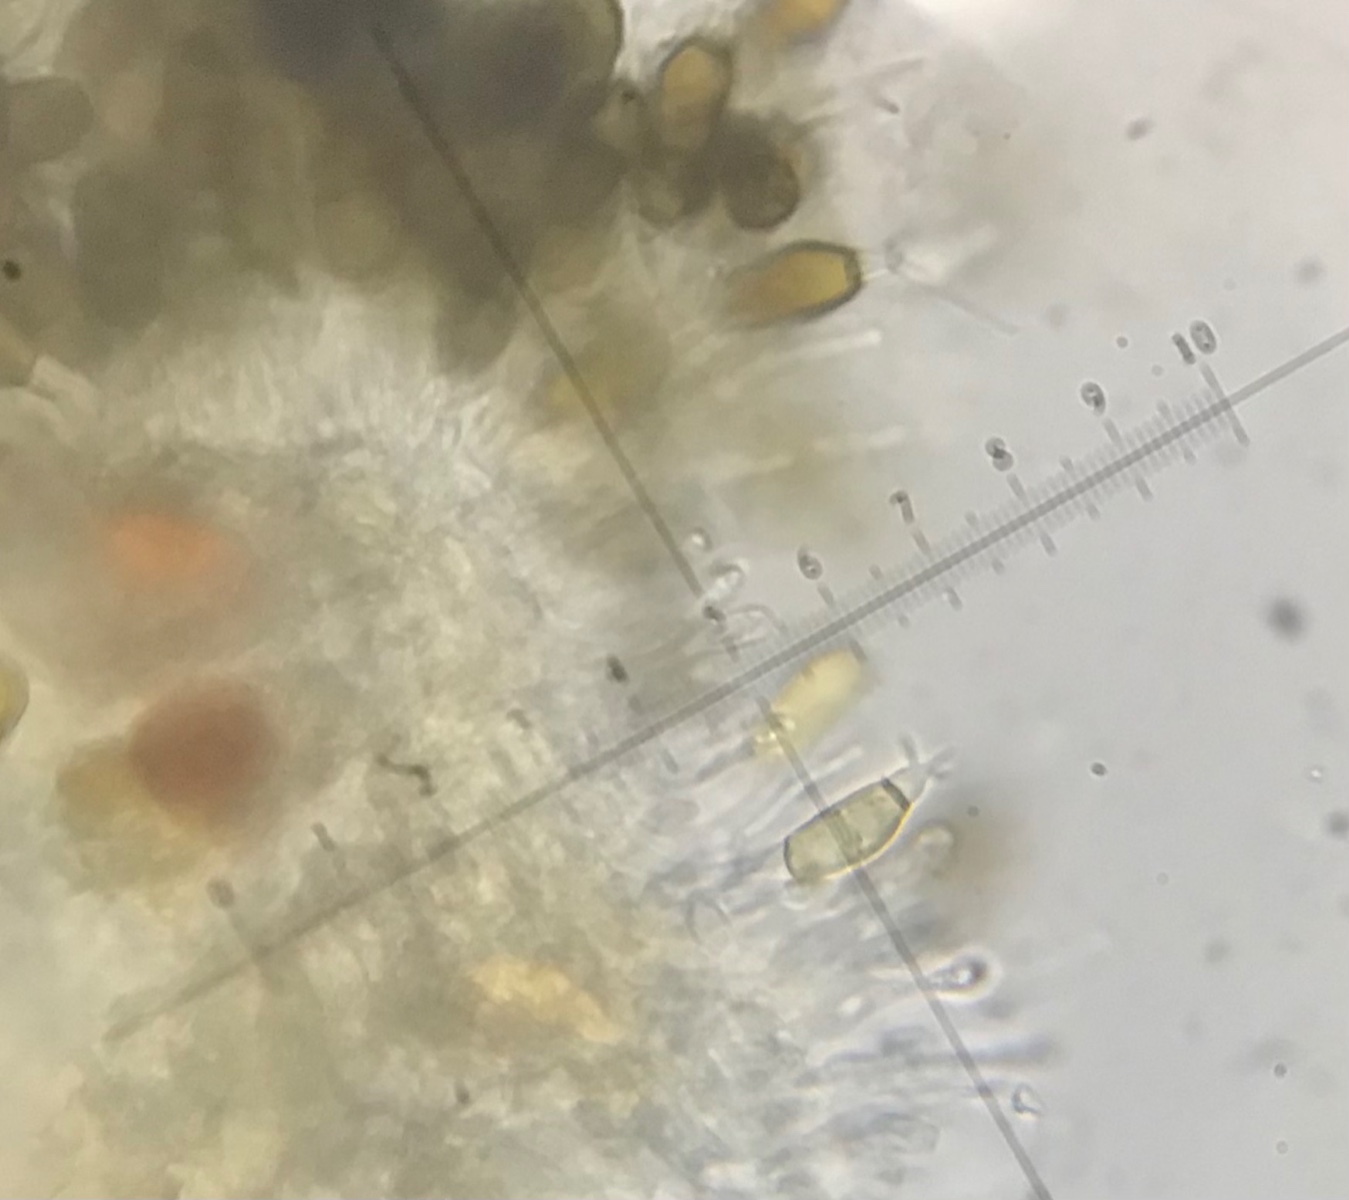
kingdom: Fungi
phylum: Ascomycota
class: Sordariomycetes
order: Amphisphaeriales
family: Pestalotiopsidaceae
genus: Pestalotiopsis
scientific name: Pestalotiopsis
